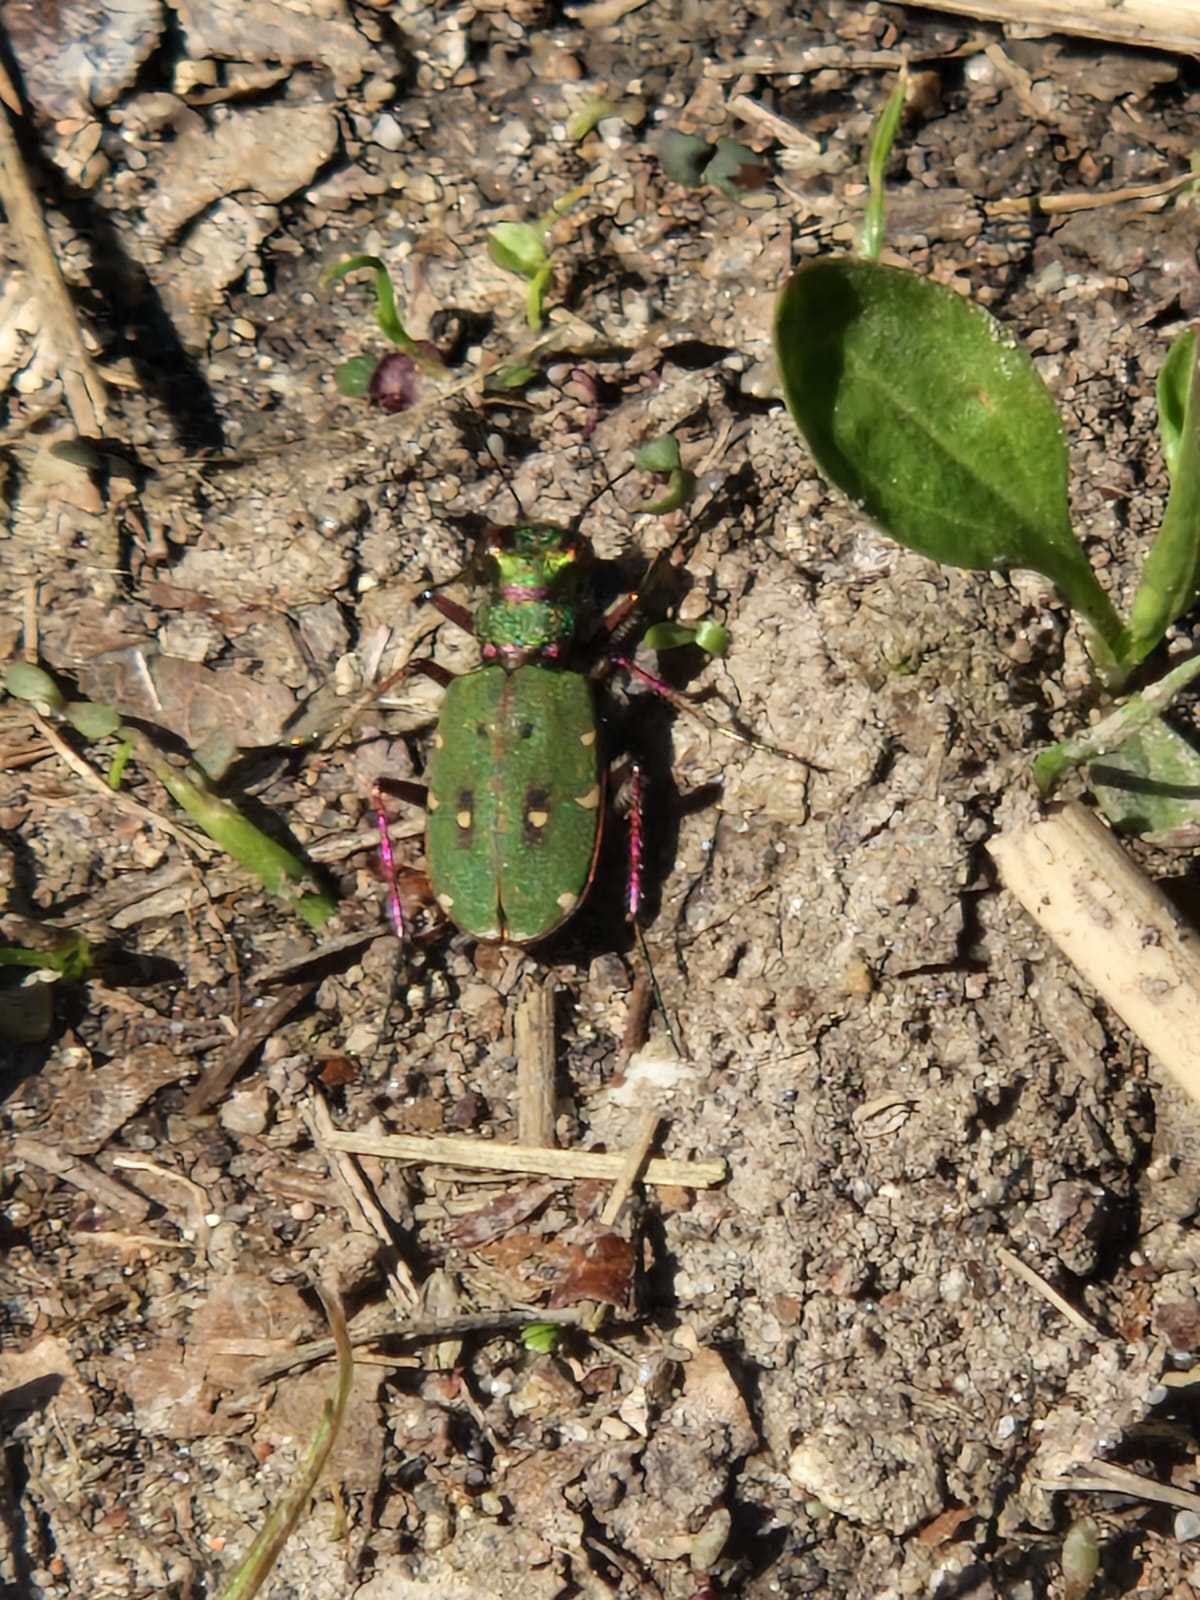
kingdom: Animalia
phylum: Arthropoda
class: Insecta
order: Coleoptera
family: Carabidae
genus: Cicindela
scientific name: Cicindela campestris
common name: Grøn sandspringer
